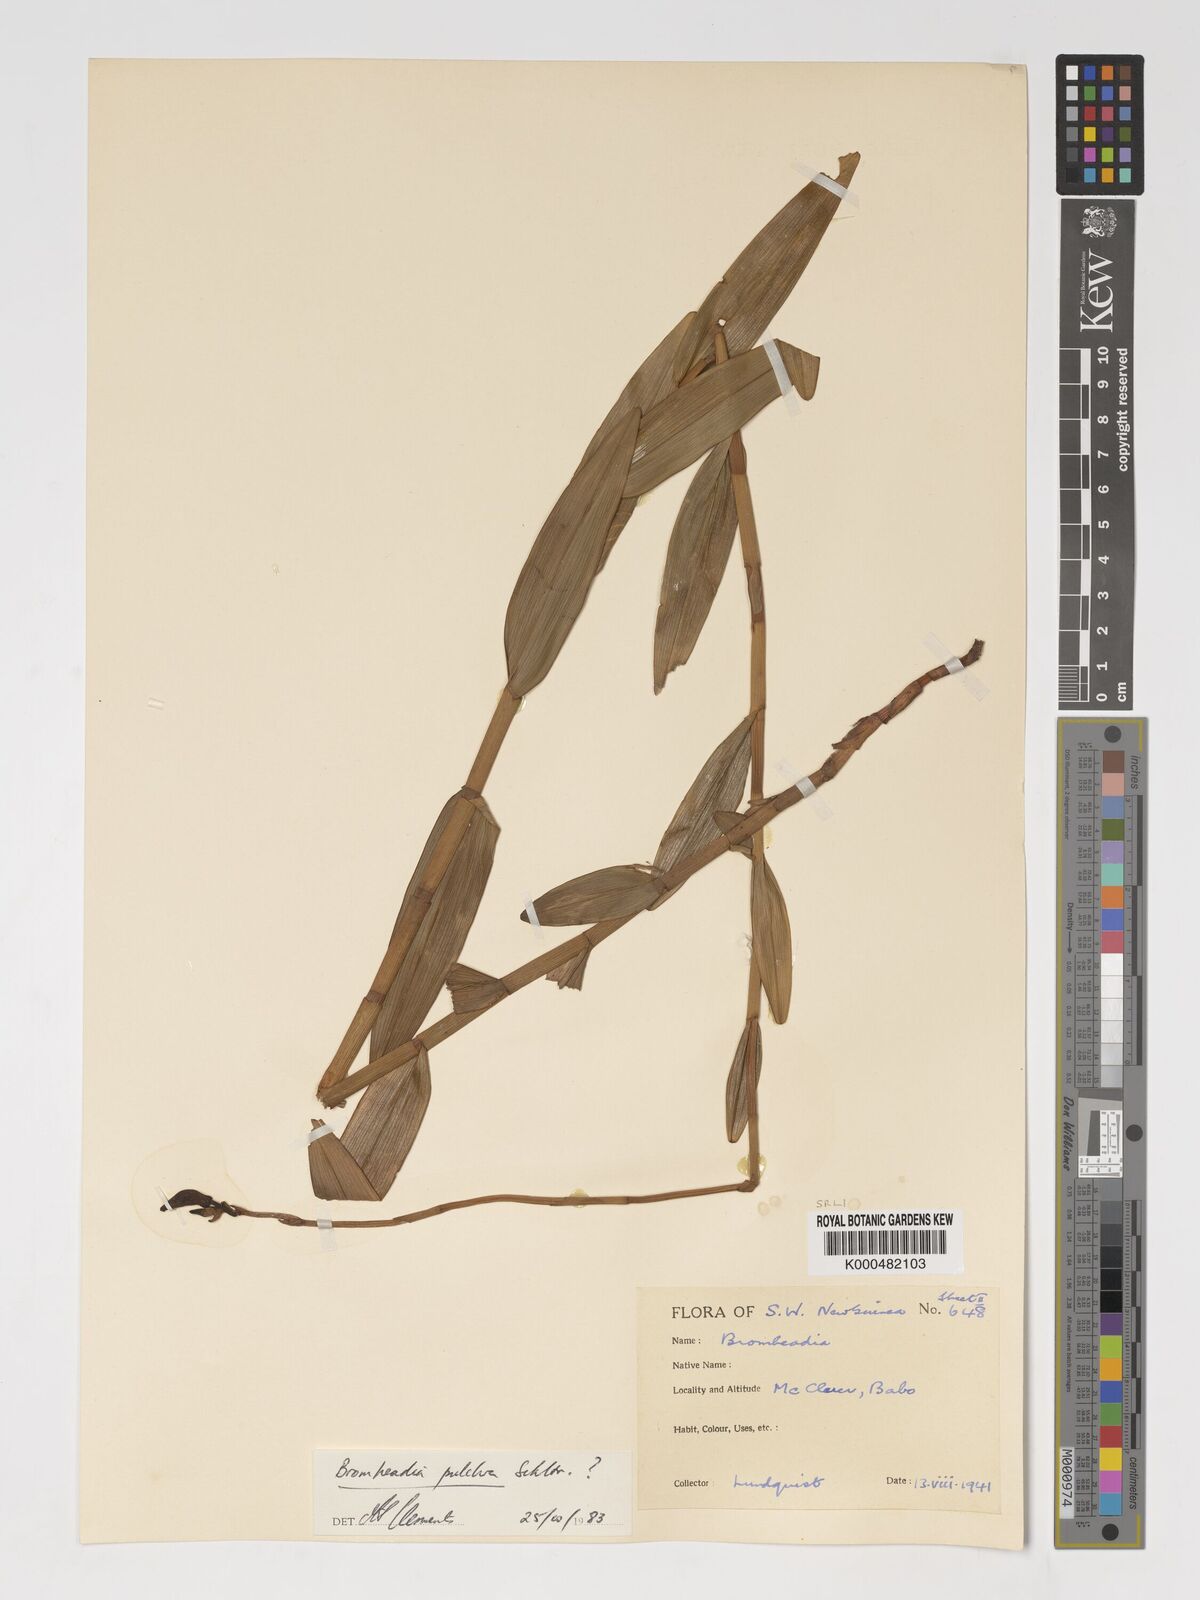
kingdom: Plantae
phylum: Tracheophyta
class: Liliopsida
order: Asparagales
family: Orchidaceae
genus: Bromheadia
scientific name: Bromheadia finlaysoniana
